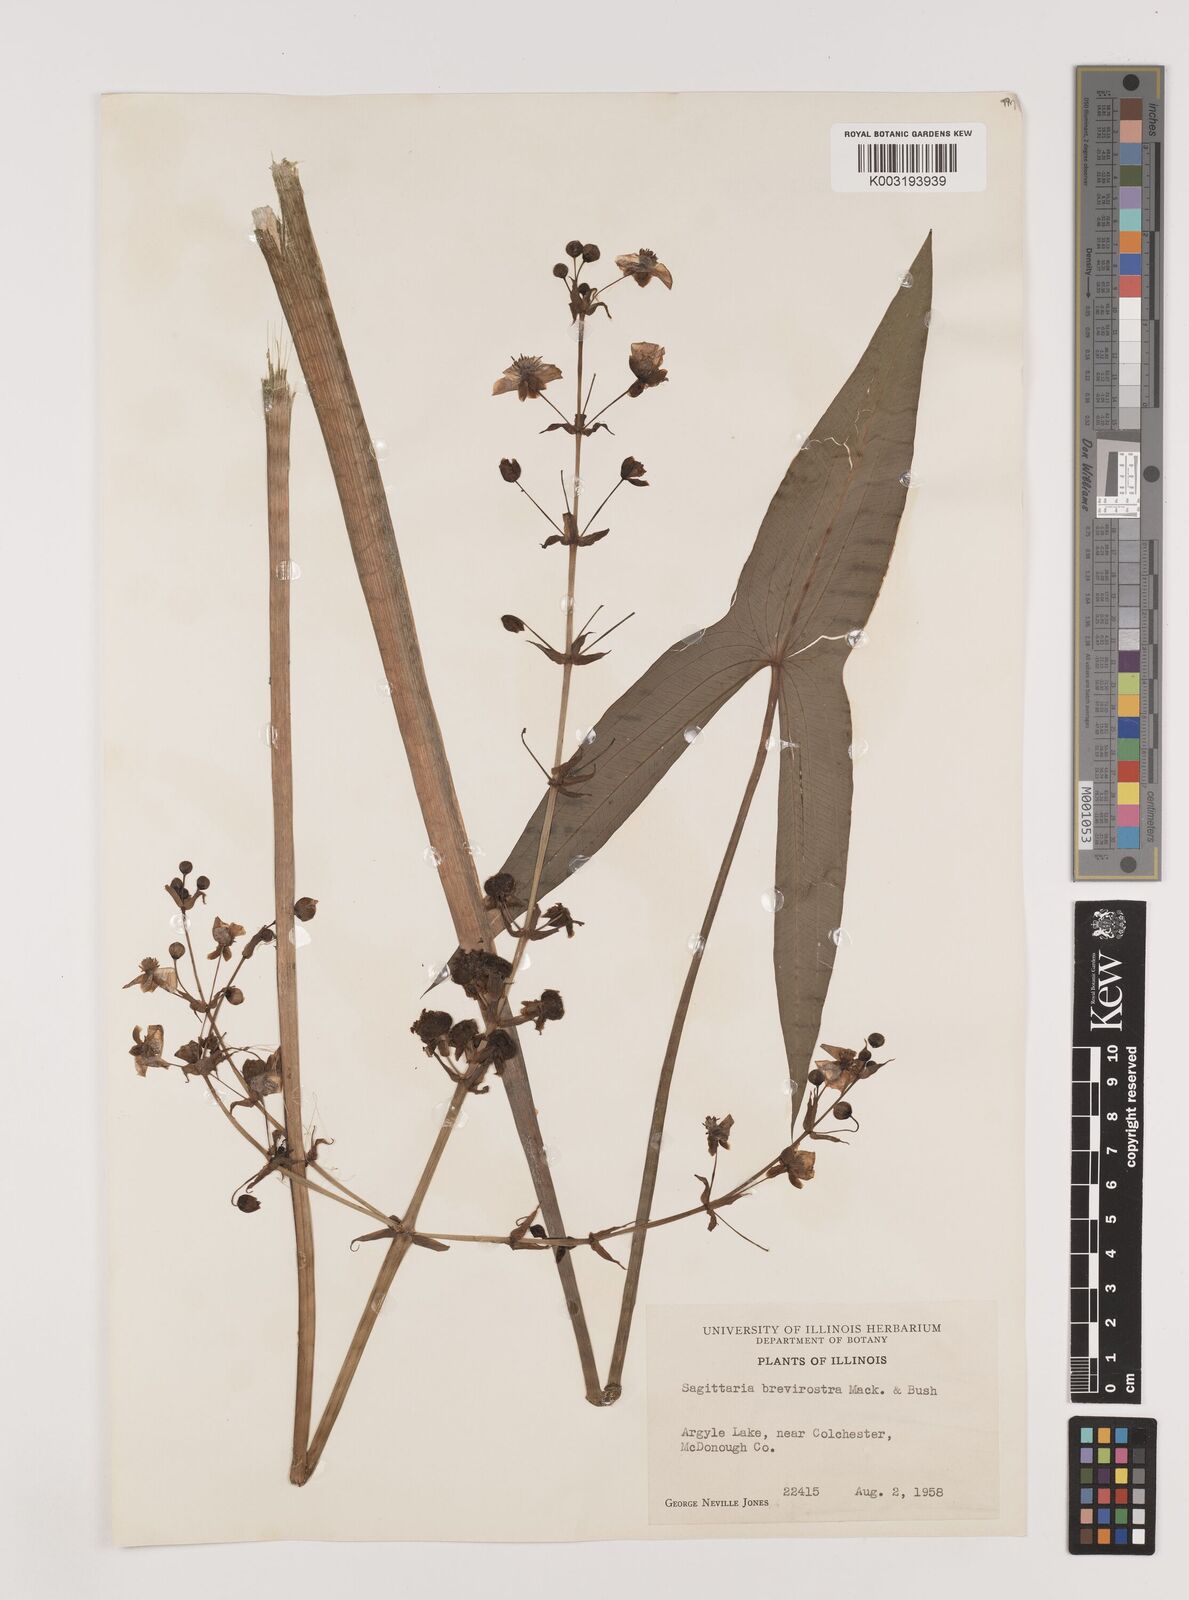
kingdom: Plantae
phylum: Tracheophyta
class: Liliopsida
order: Alismatales
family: Alismataceae
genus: Sagittaria
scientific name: Sagittaria brevirostra
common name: Midwestern arrowhead
